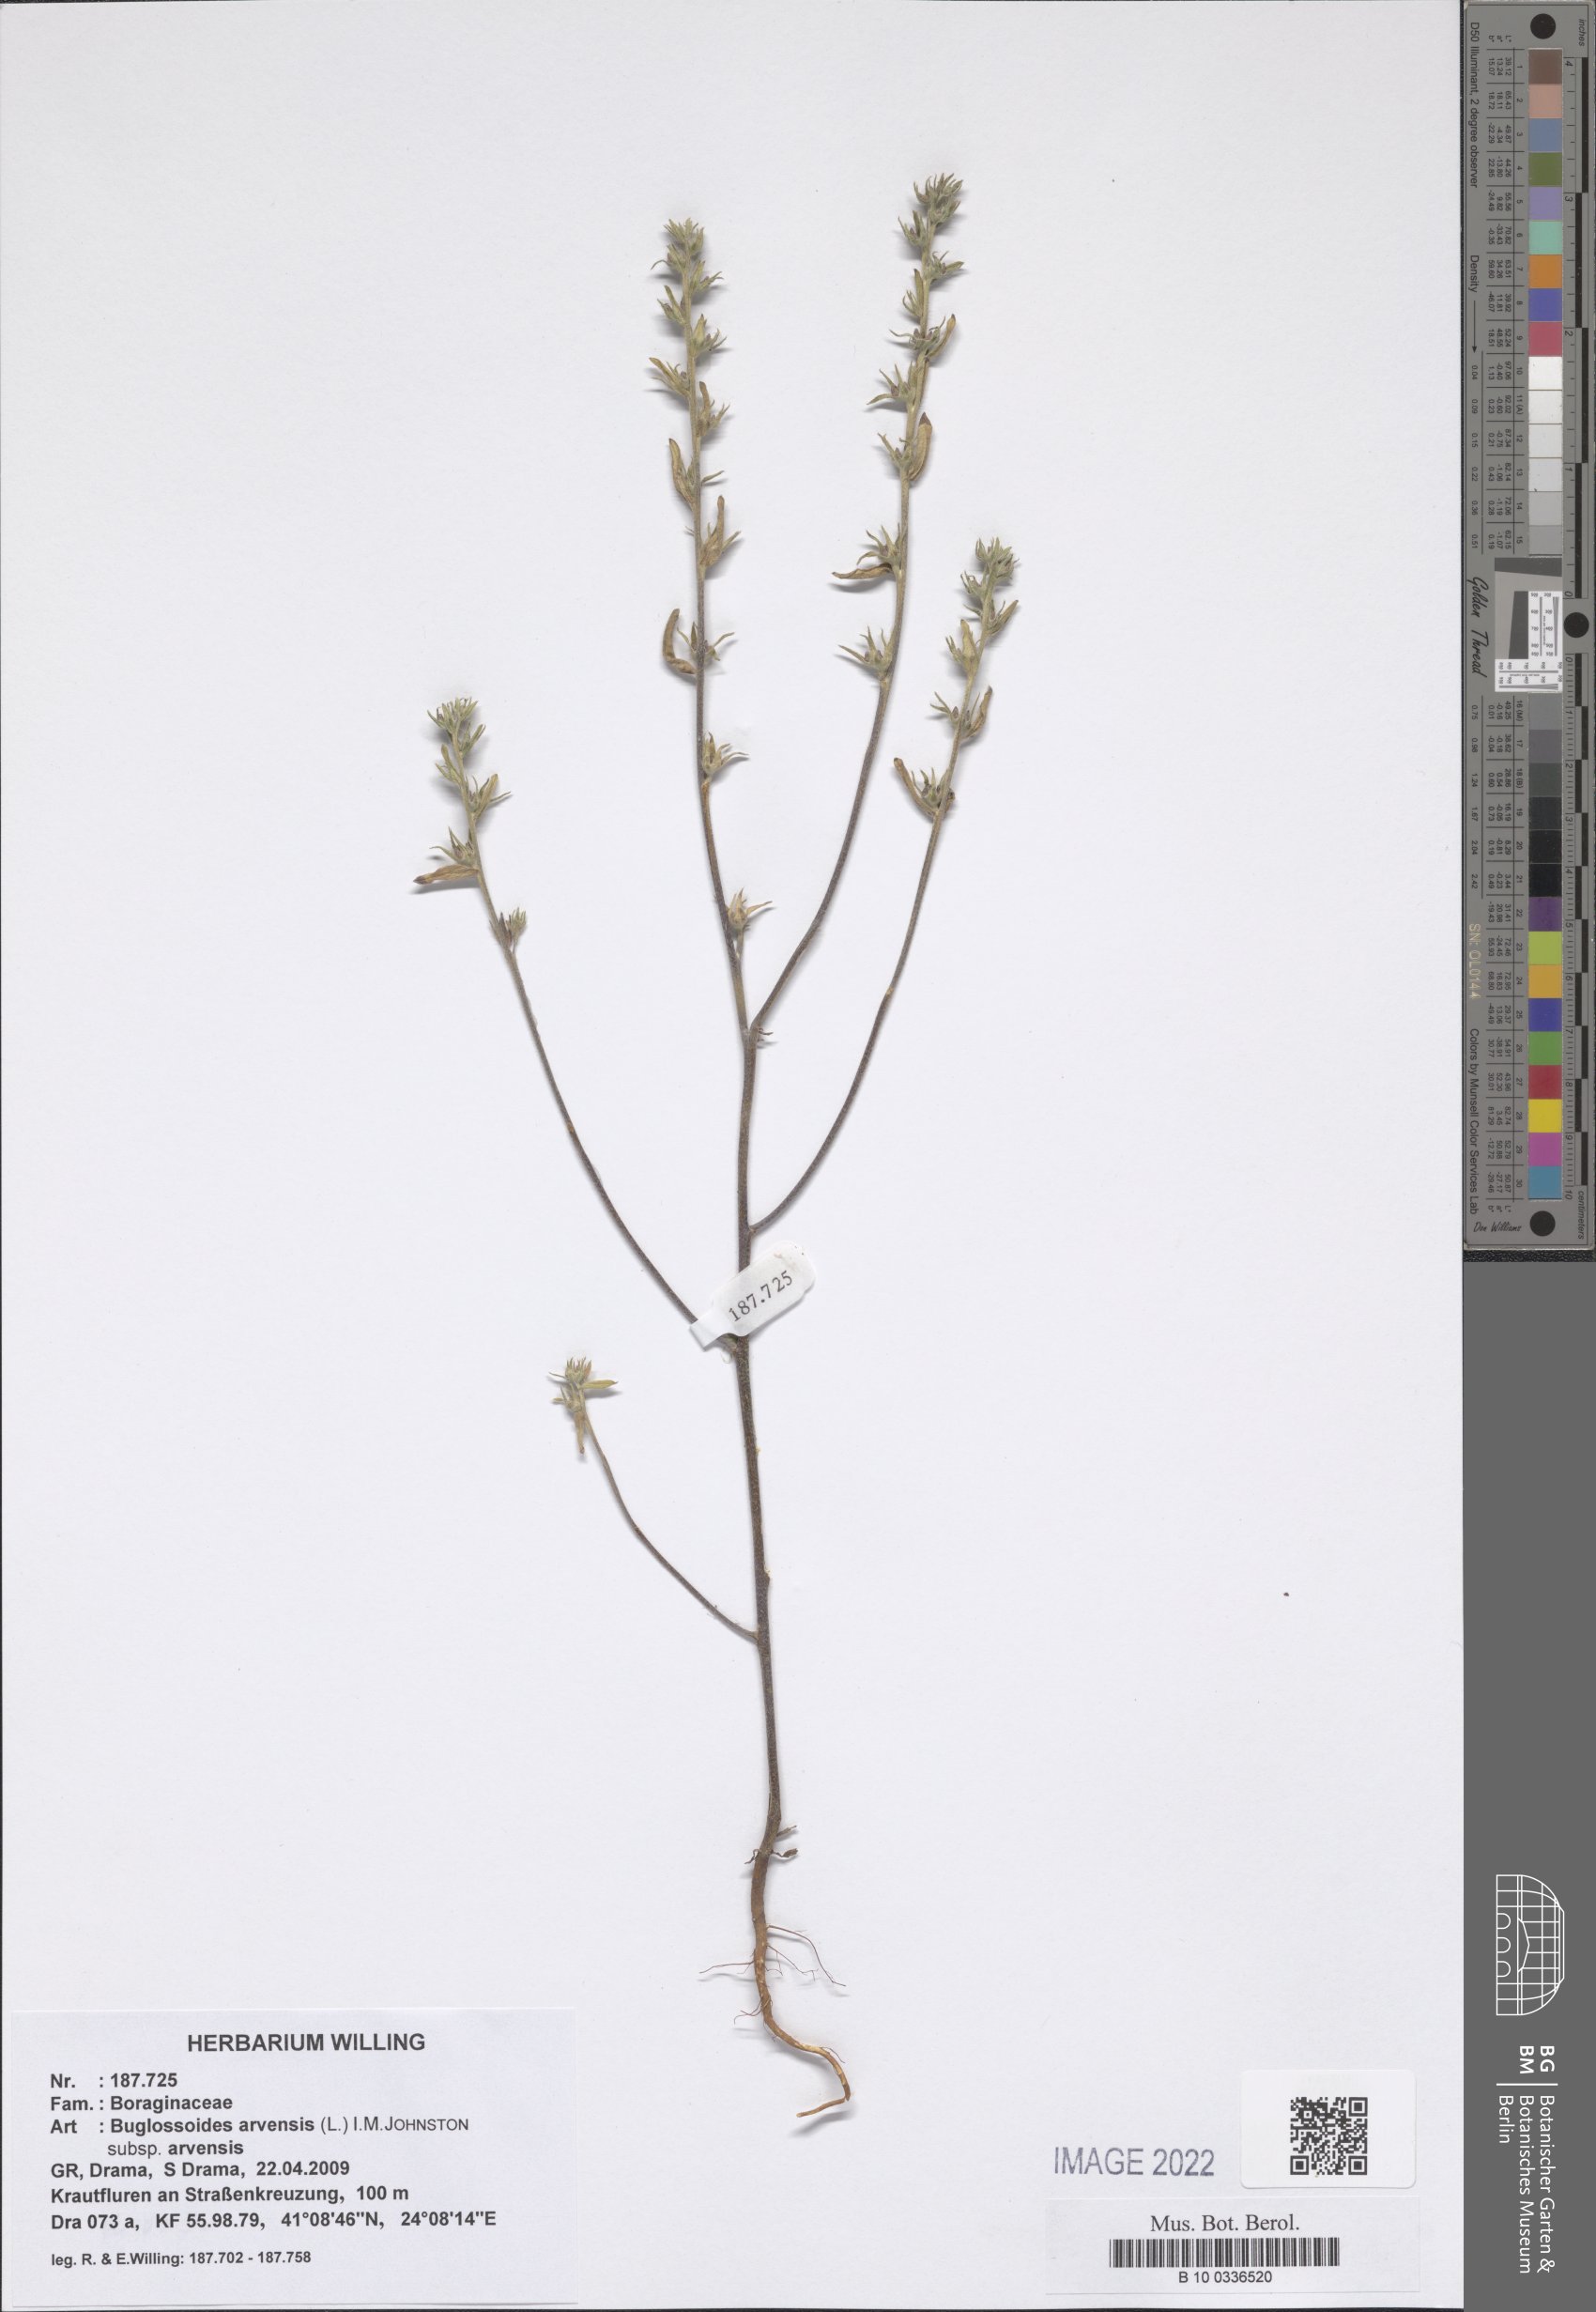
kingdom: Plantae
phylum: Tracheophyta
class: Magnoliopsida
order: Boraginales
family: Boraginaceae
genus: Buglossoides
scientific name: Buglossoides arvensis
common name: Corn gromwell
